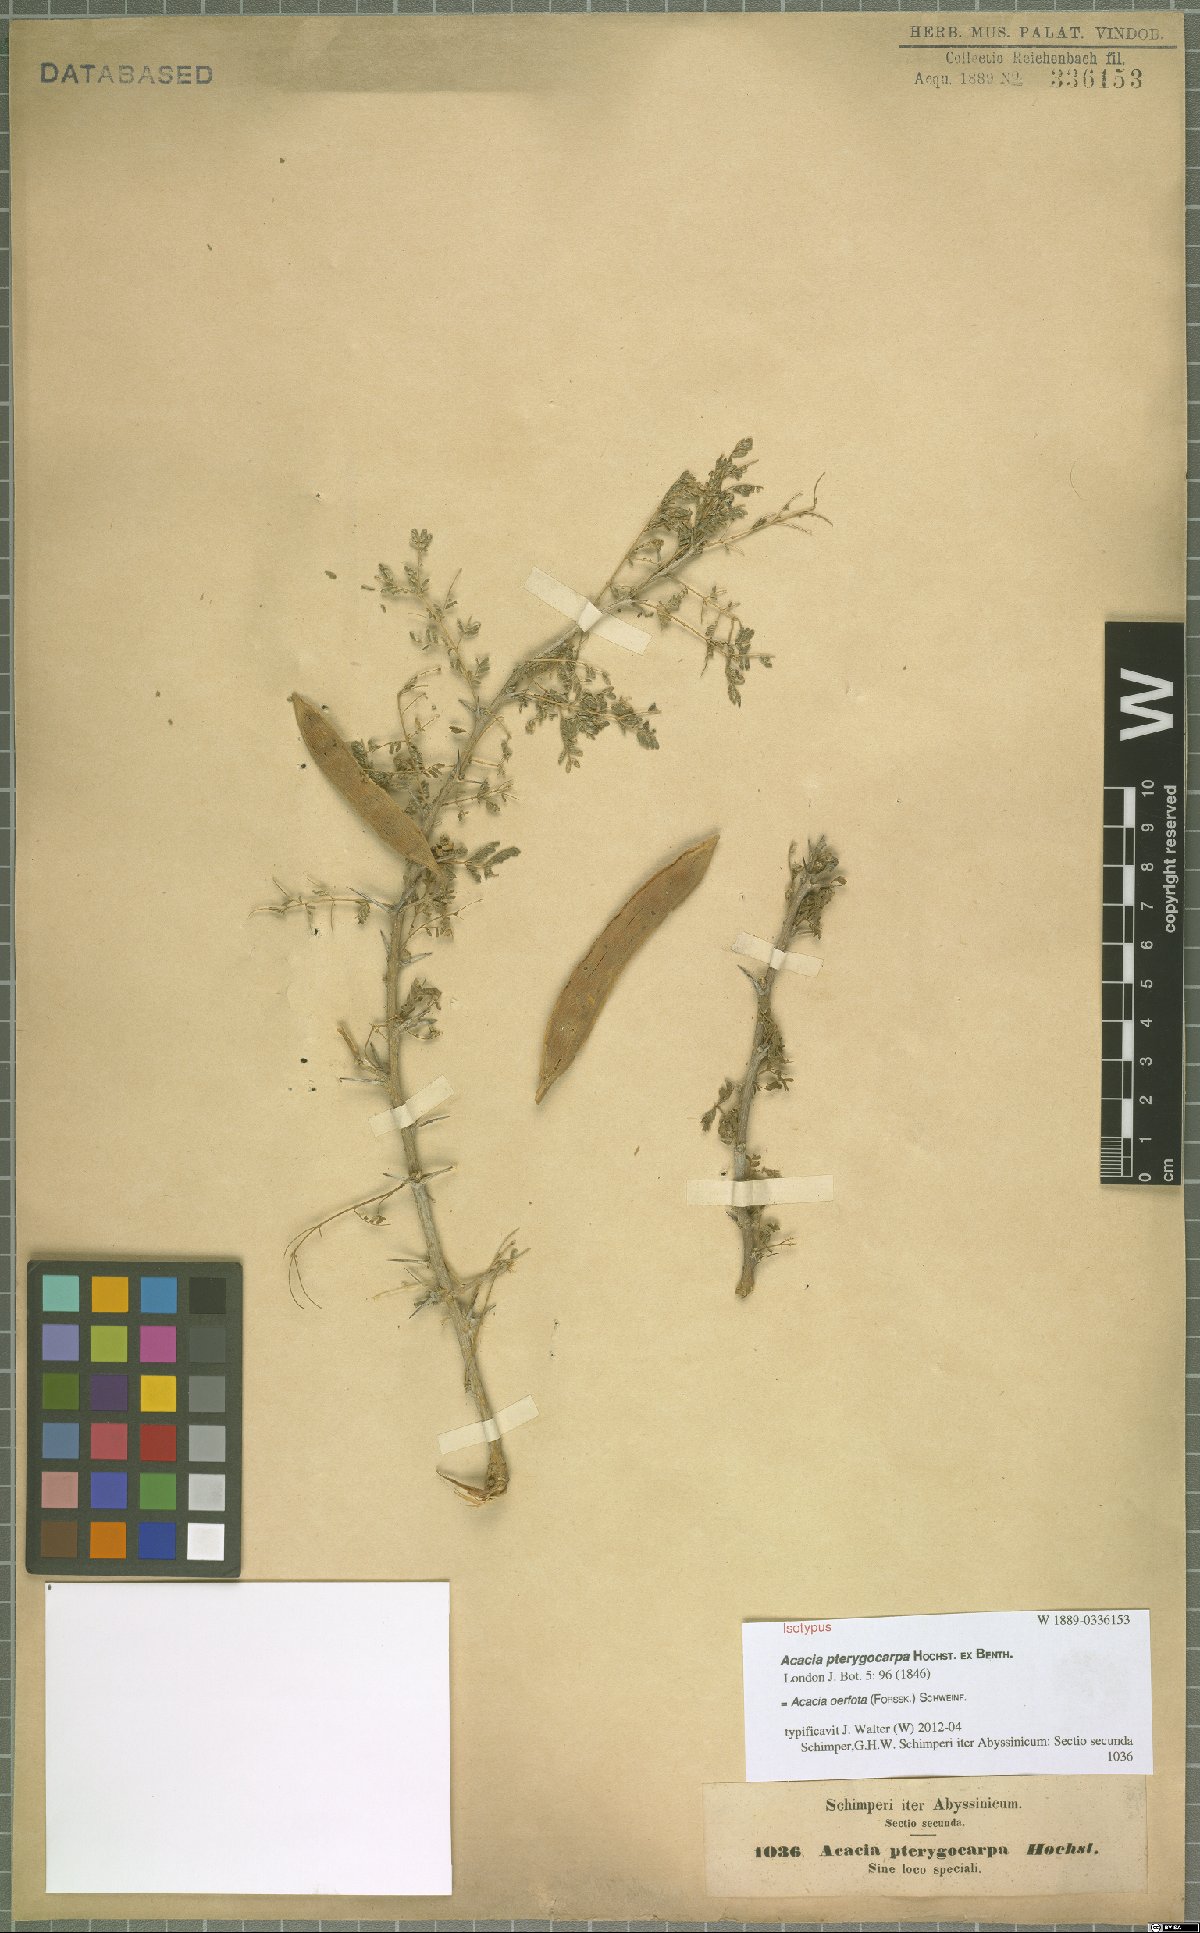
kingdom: Plantae
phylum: Tracheophyta
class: Magnoliopsida
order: Fabales
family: Fabaceae
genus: Vachellia
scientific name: Vachellia oerfota
